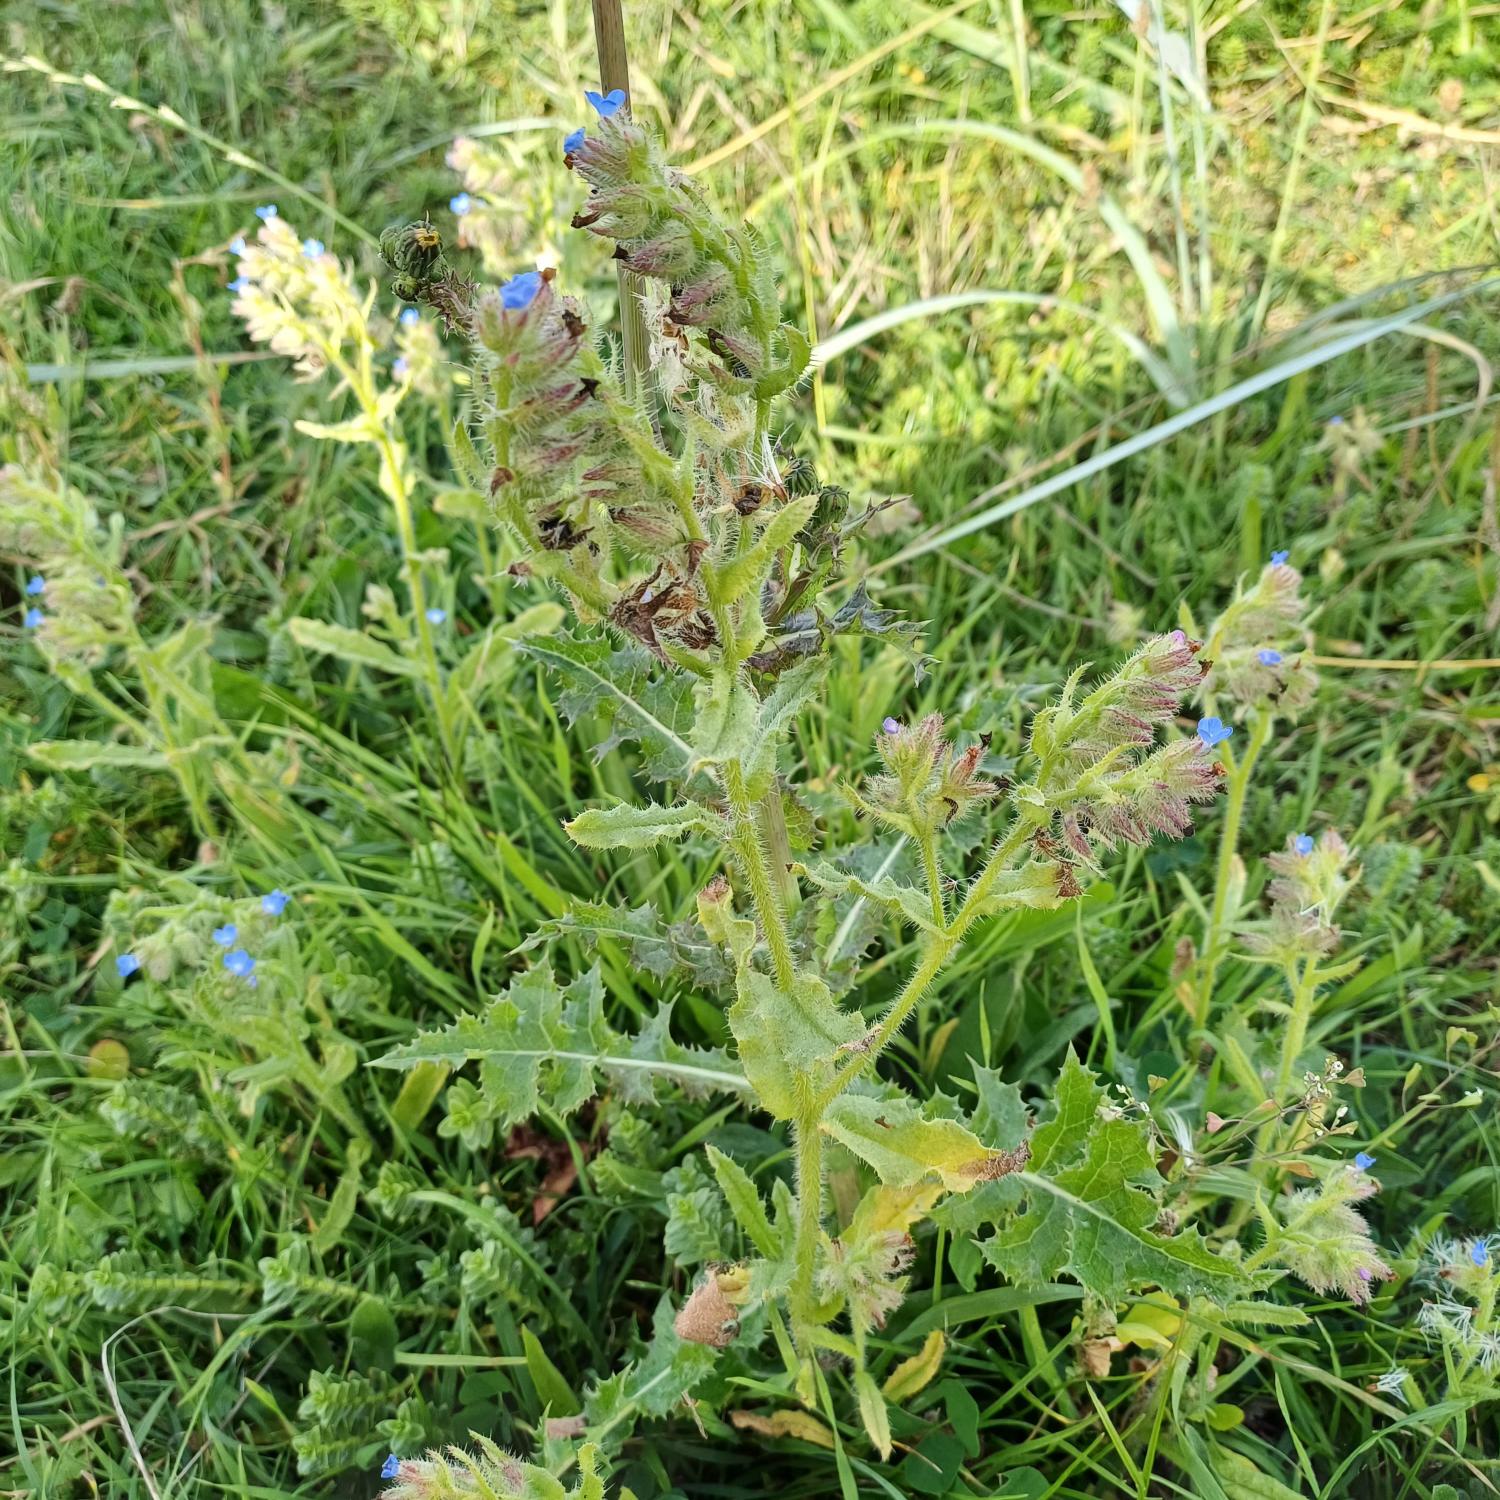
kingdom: Plantae
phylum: Tracheophyta
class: Magnoliopsida
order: Boraginales
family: Boraginaceae
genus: Lycopsis
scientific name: Lycopsis arvensis
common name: Krumhals
